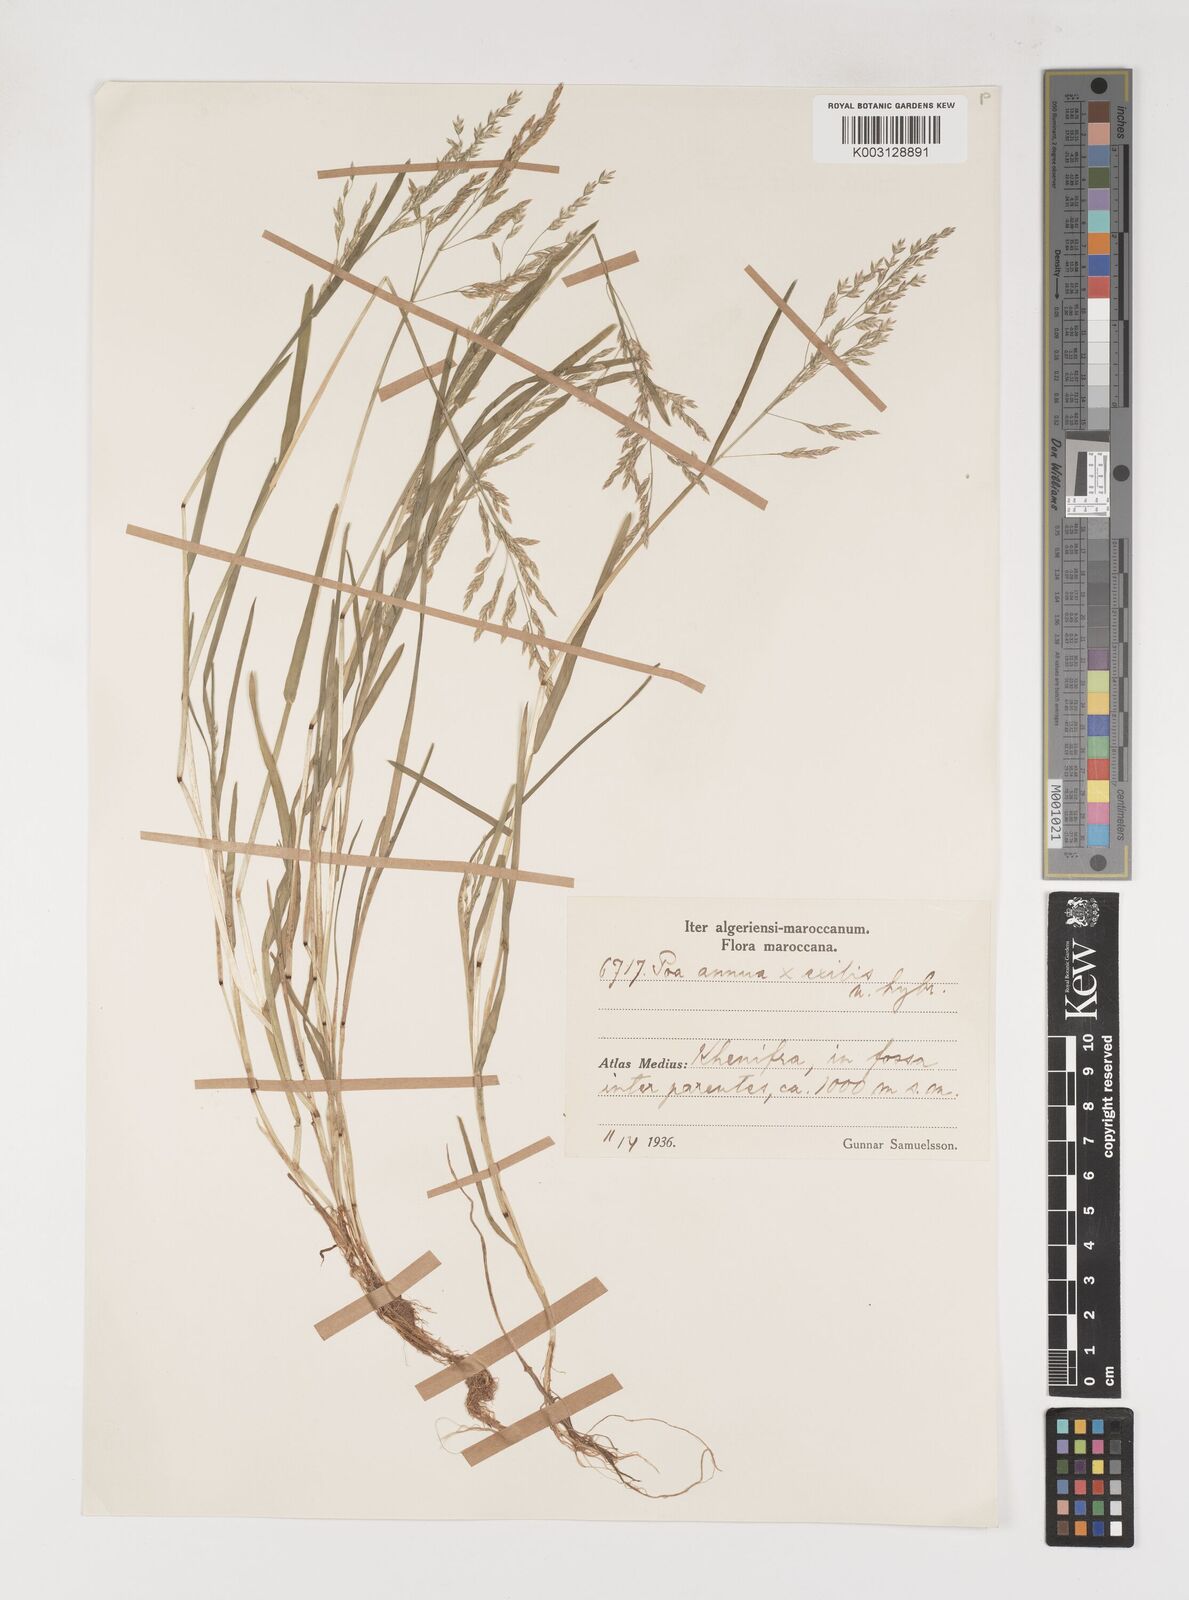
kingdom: Plantae
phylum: Tracheophyta
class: Liliopsida
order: Poales
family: Poaceae
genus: Poa
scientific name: Poa annua
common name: Annual bluegrass
